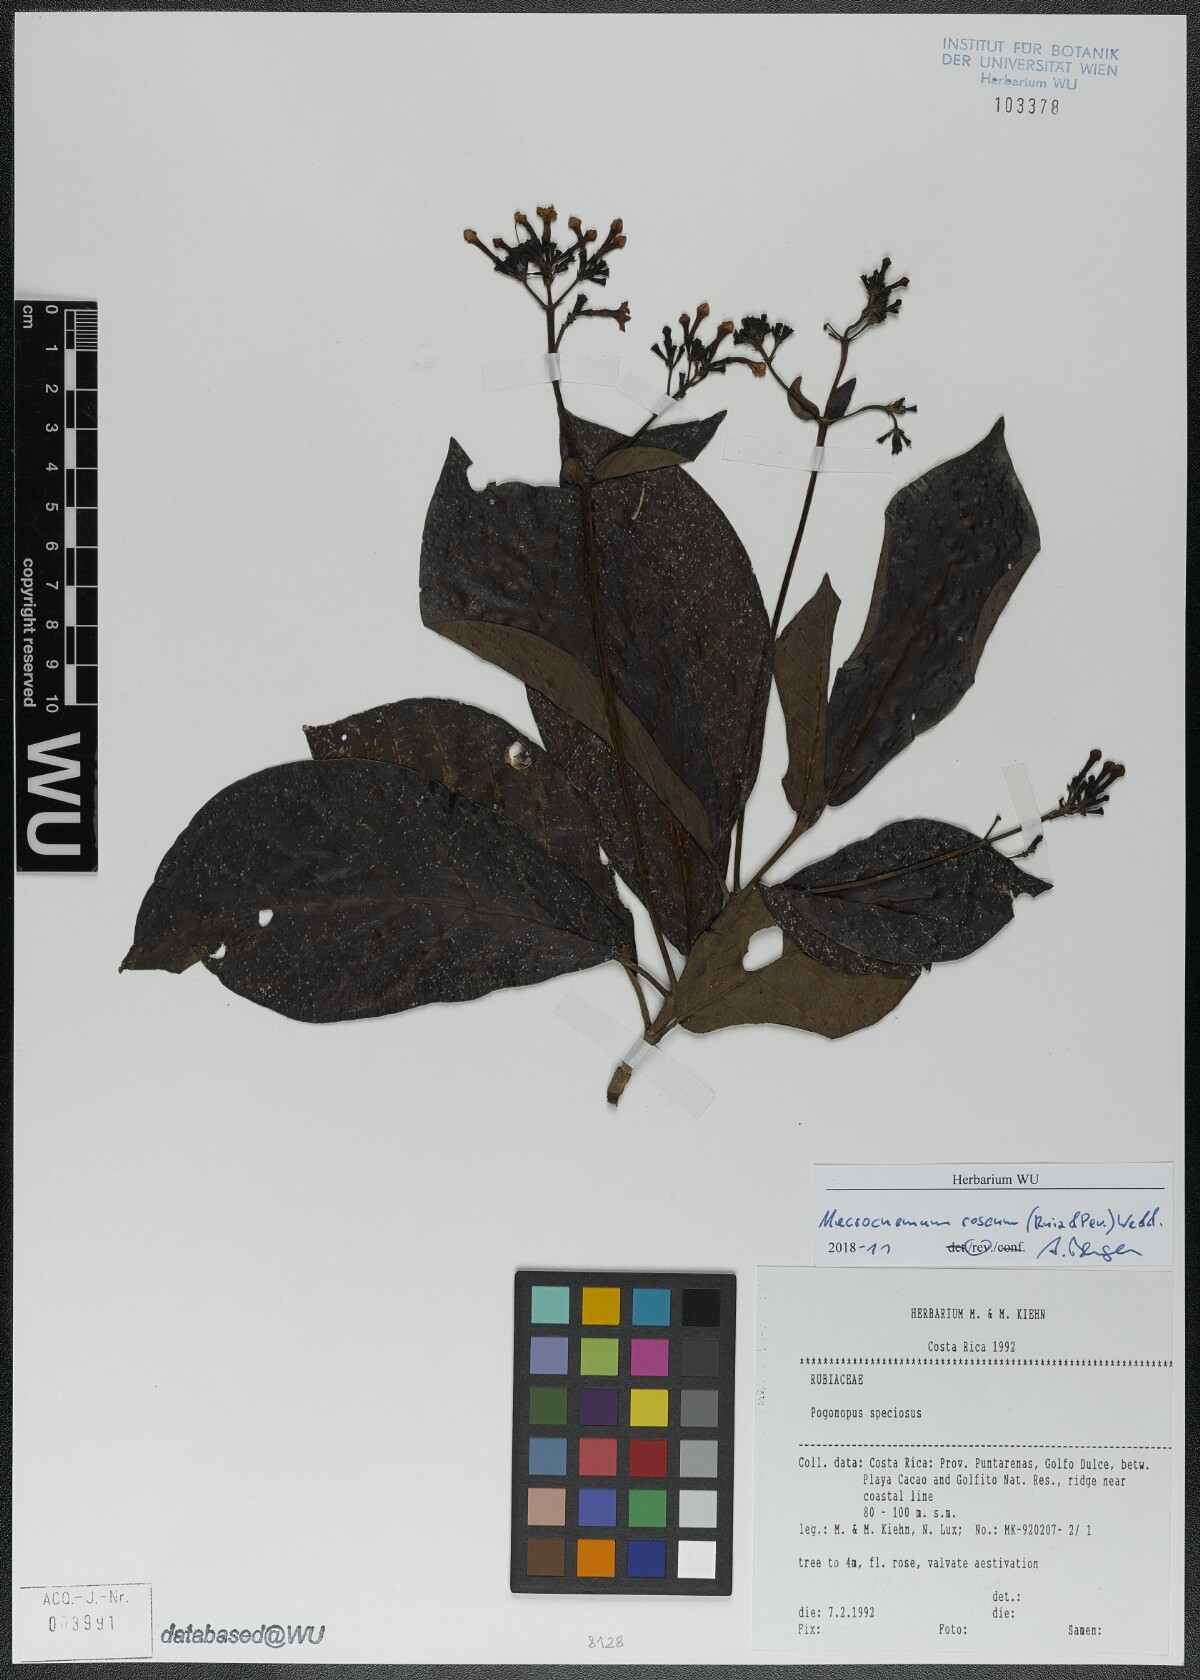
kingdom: Plantae
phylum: Tracheophyta
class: Magnoliopsida
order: Gentianales
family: Rubiaceae
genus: Macrocnemum
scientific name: Macrocnemum roseum
